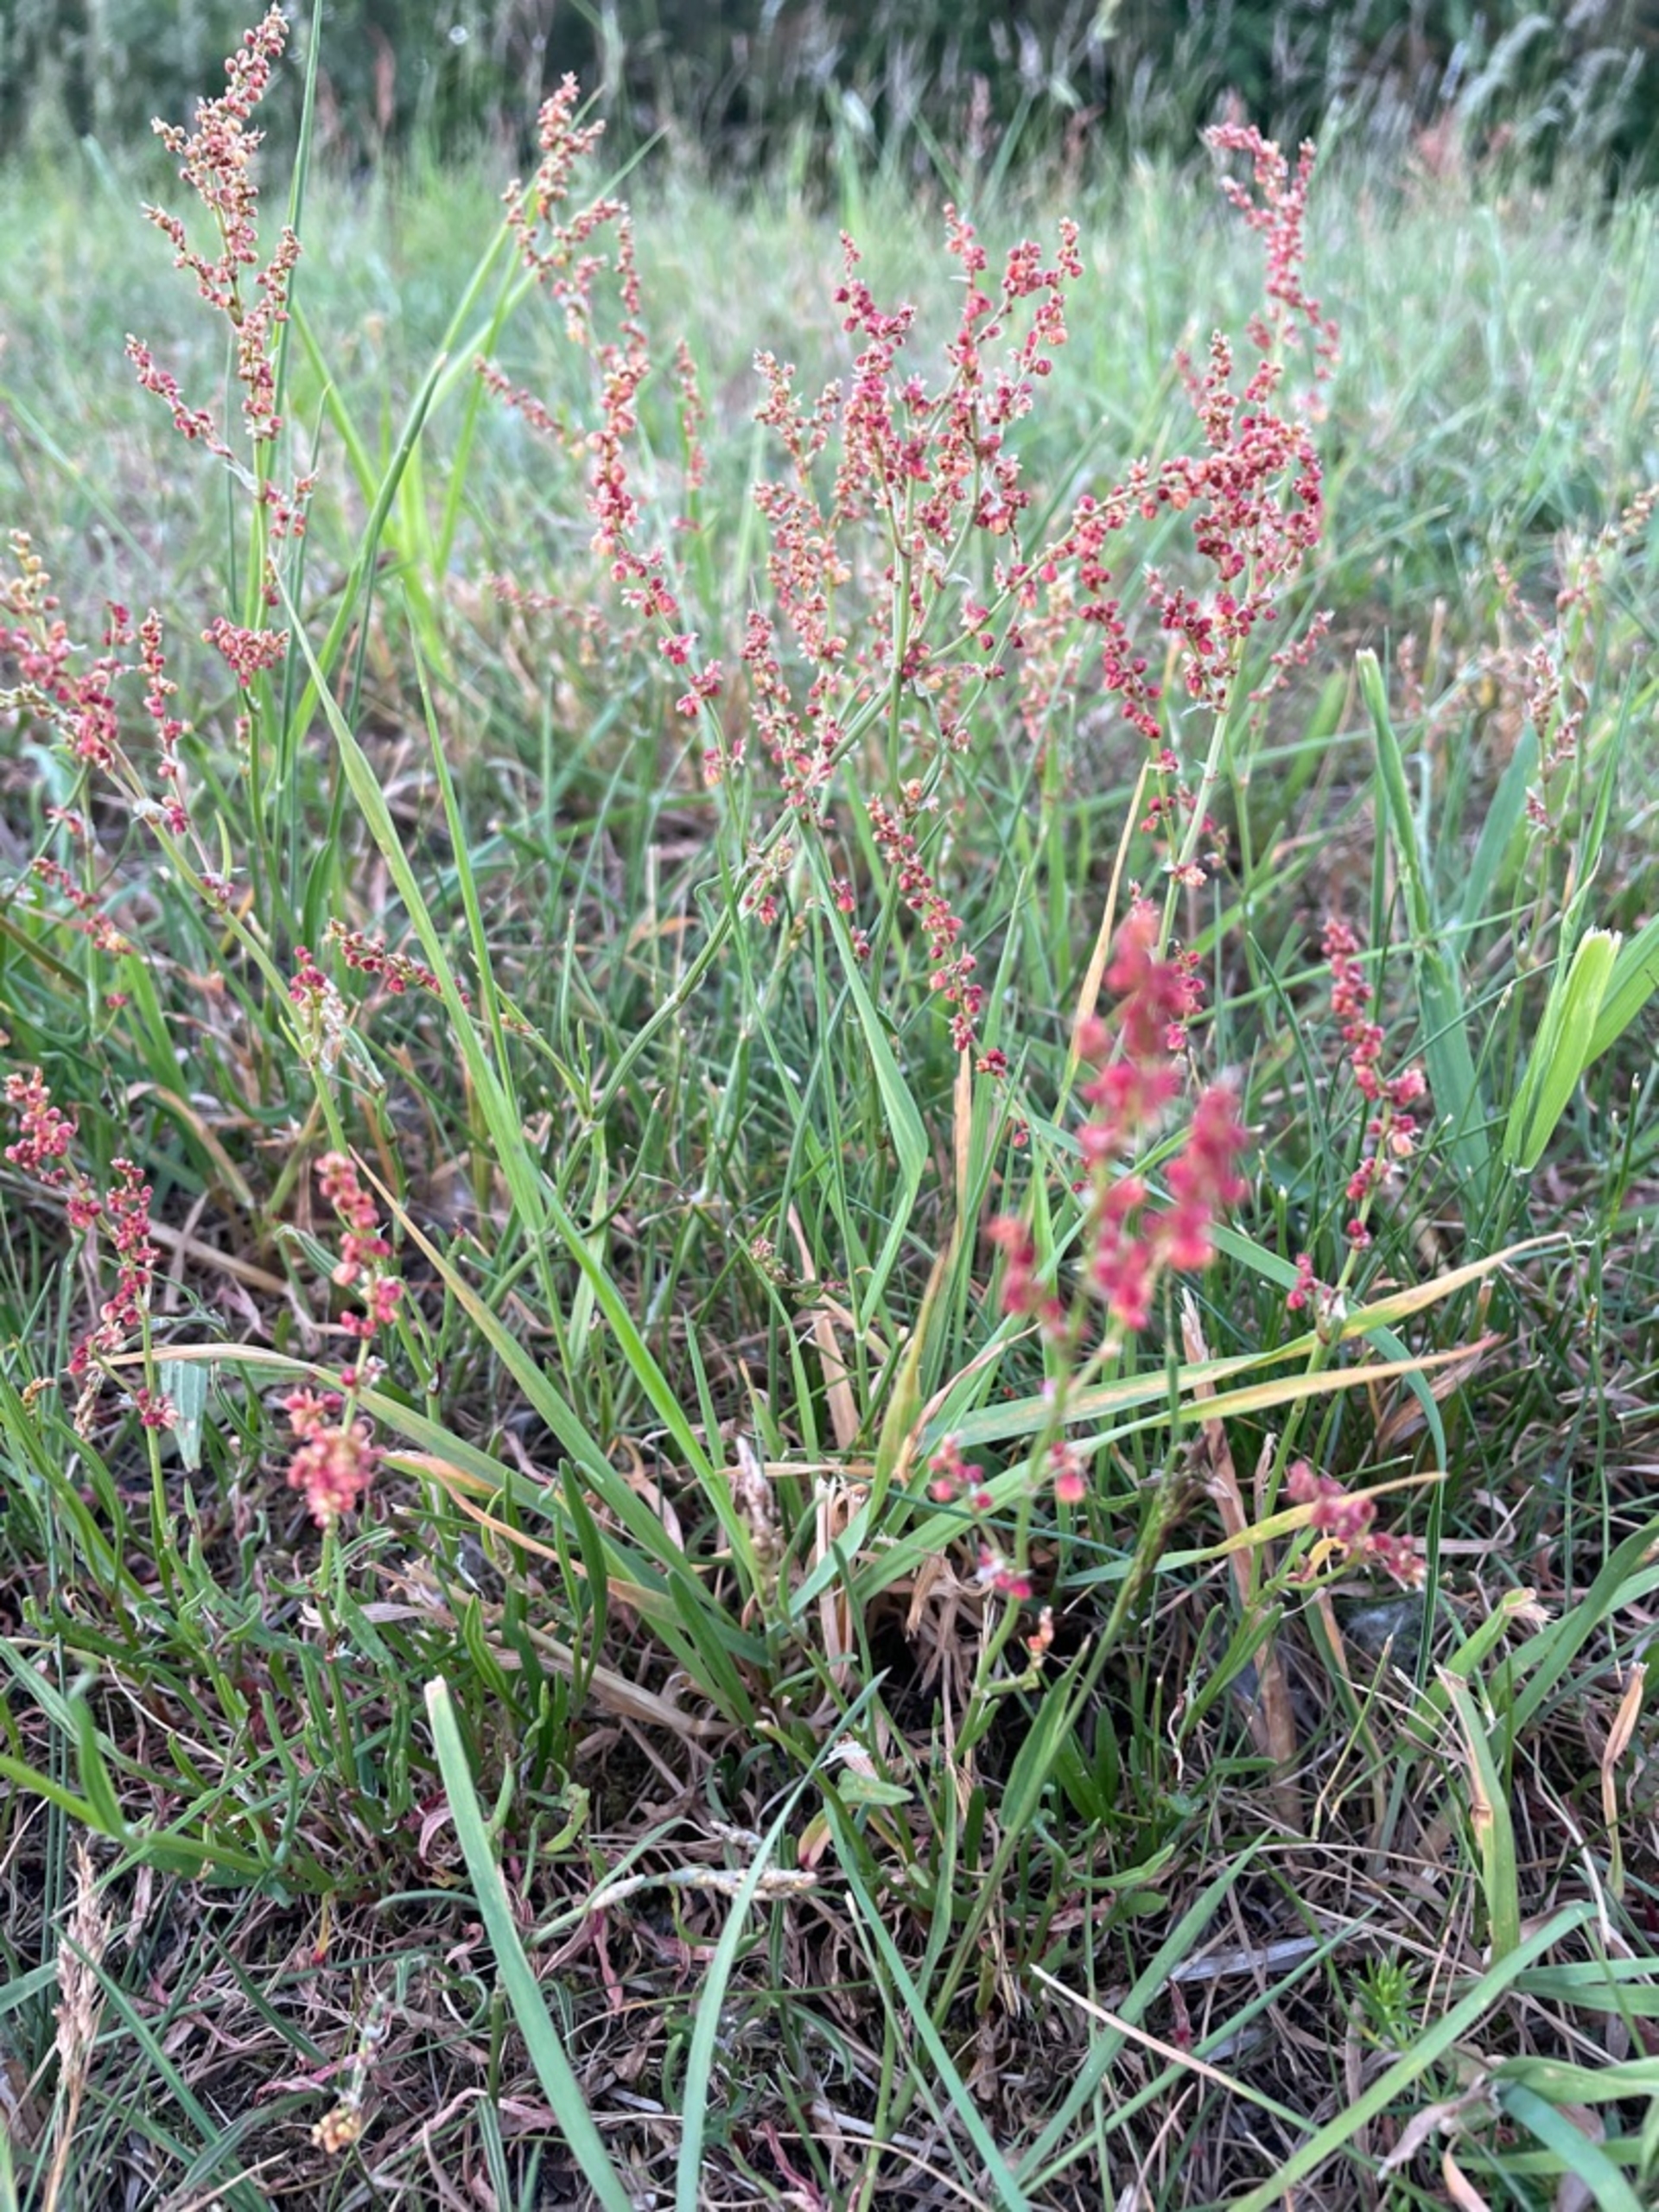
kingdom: Plantae
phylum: Tracheophyta
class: Magnoliopsida
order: Caryophyllales
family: Polygonaceae
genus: Rumex
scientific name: Rumex acetosella
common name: Rødknæ
